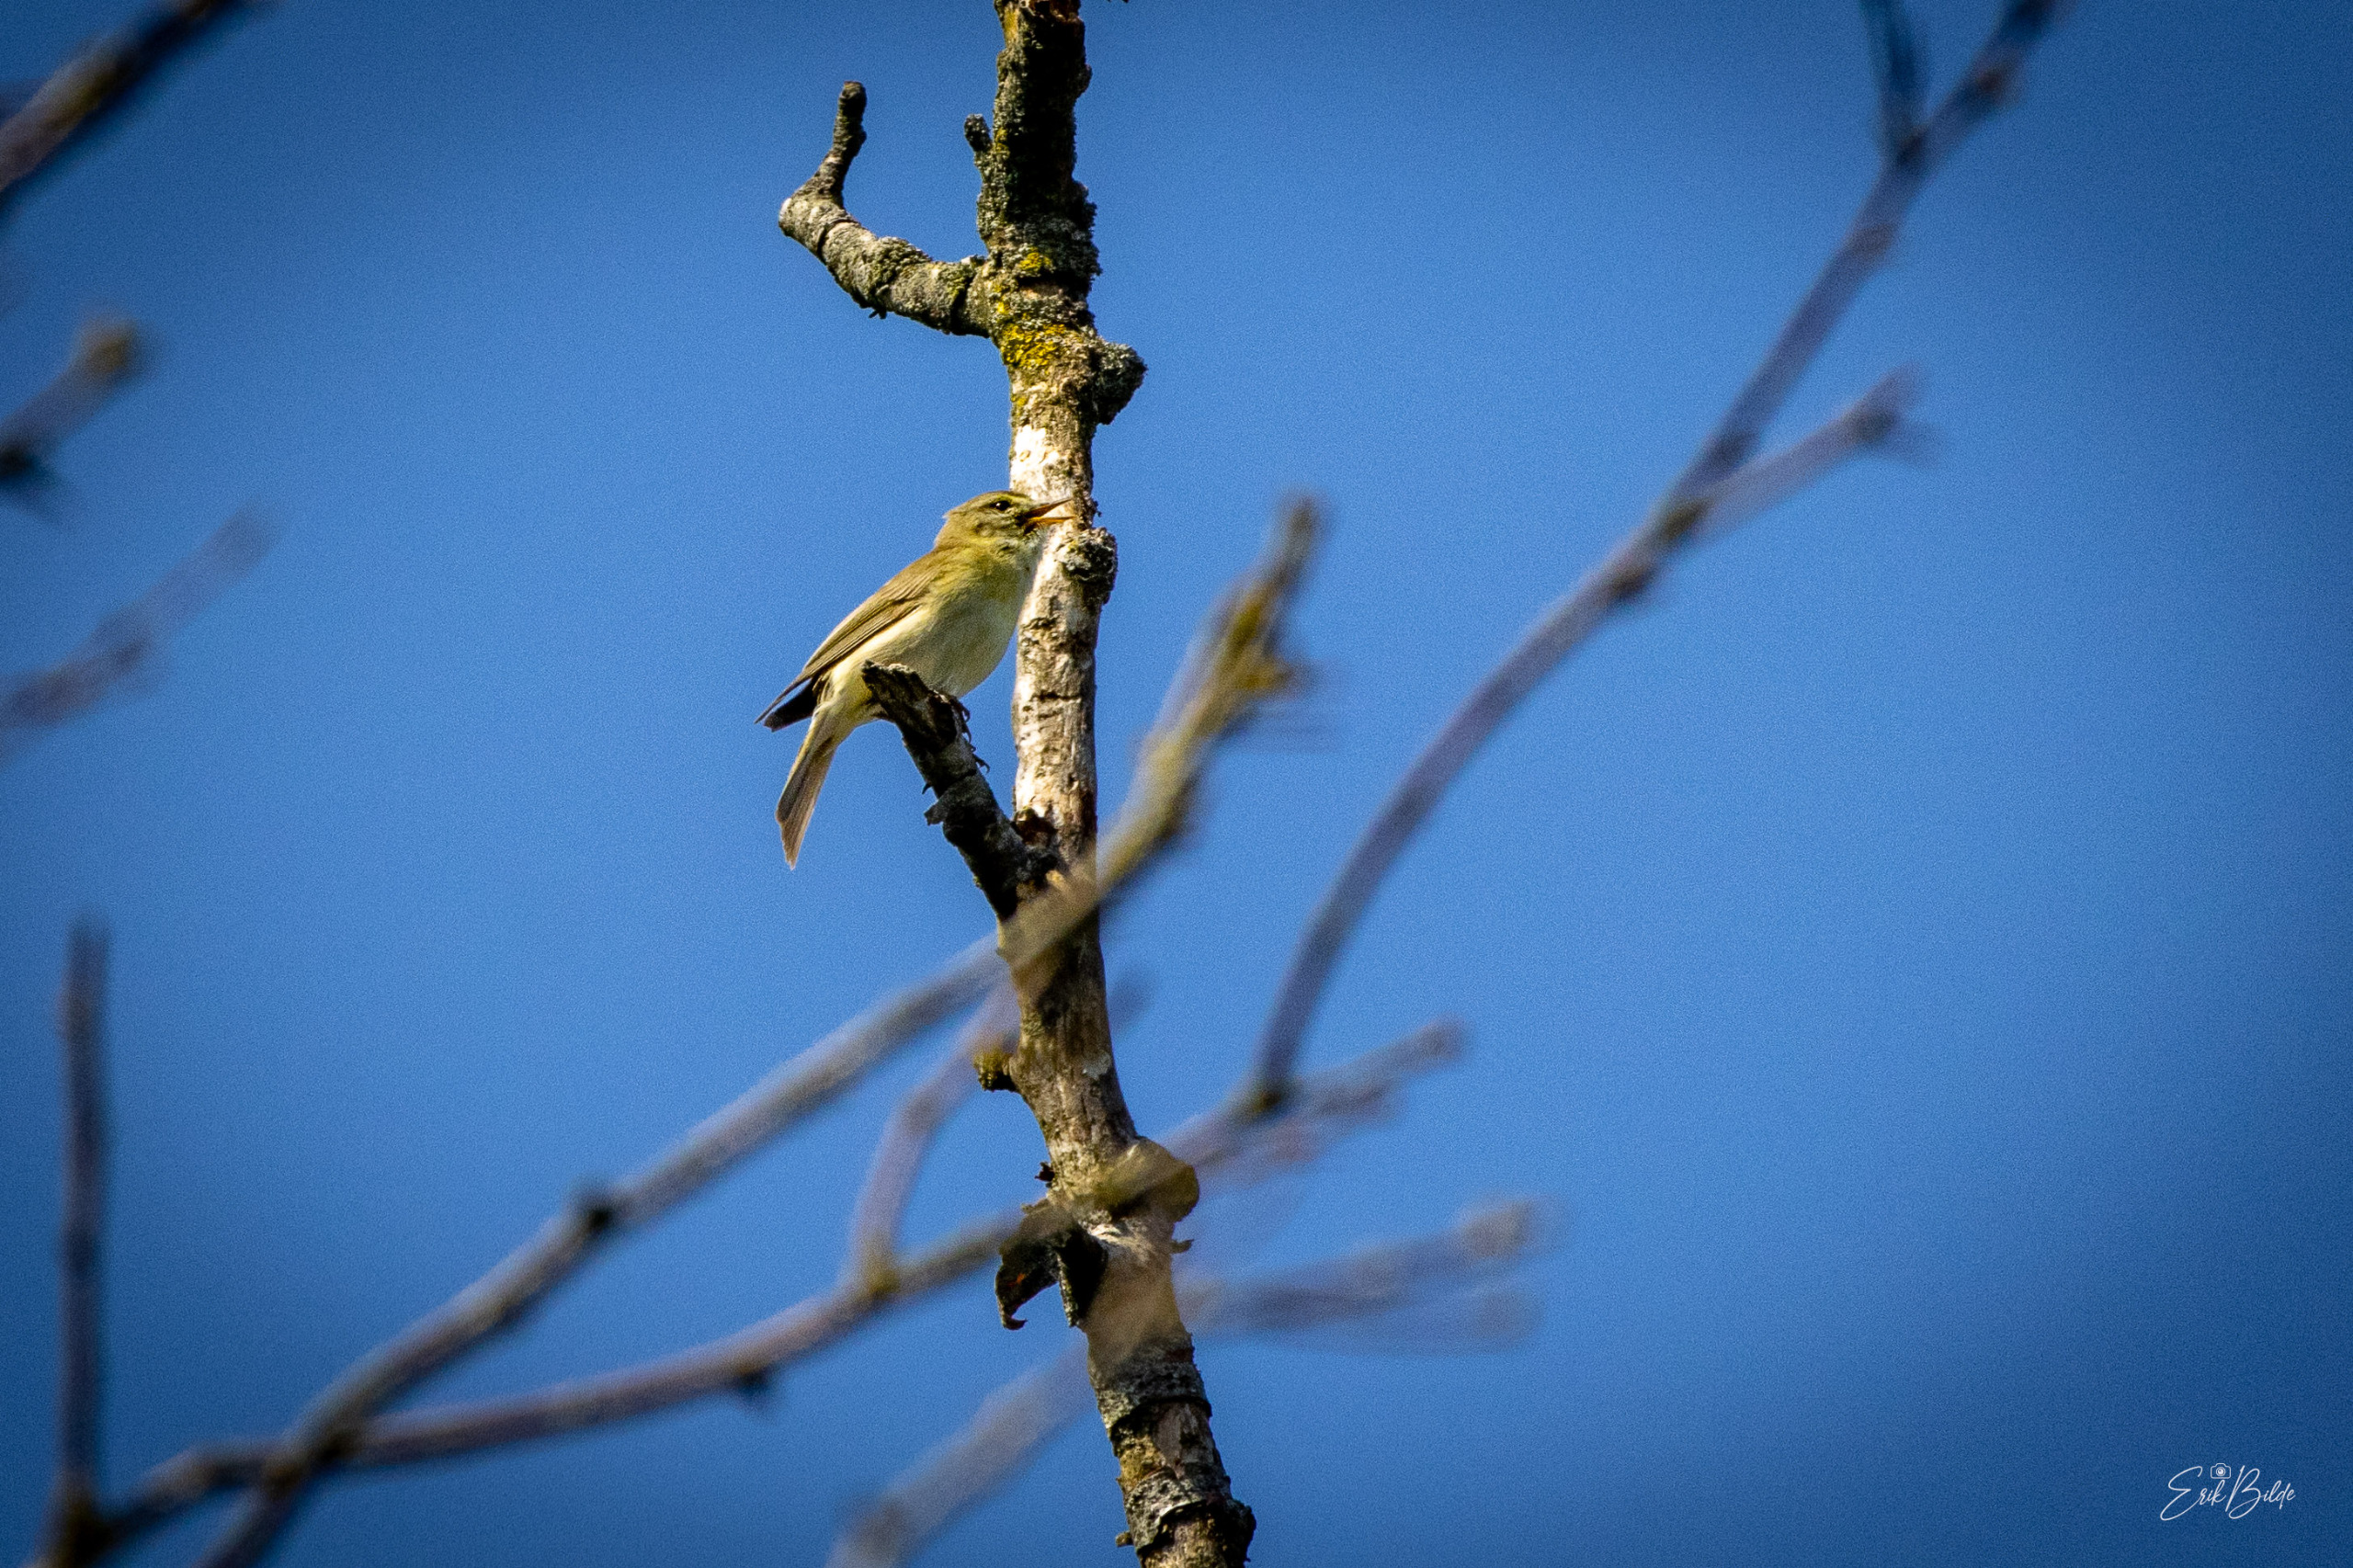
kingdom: Animalia
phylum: Chordata
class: Aves
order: Passeriformes
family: Phylloscopidae
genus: Phylloscopus
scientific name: Phylloscopus trochilus
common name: Løvsanger
